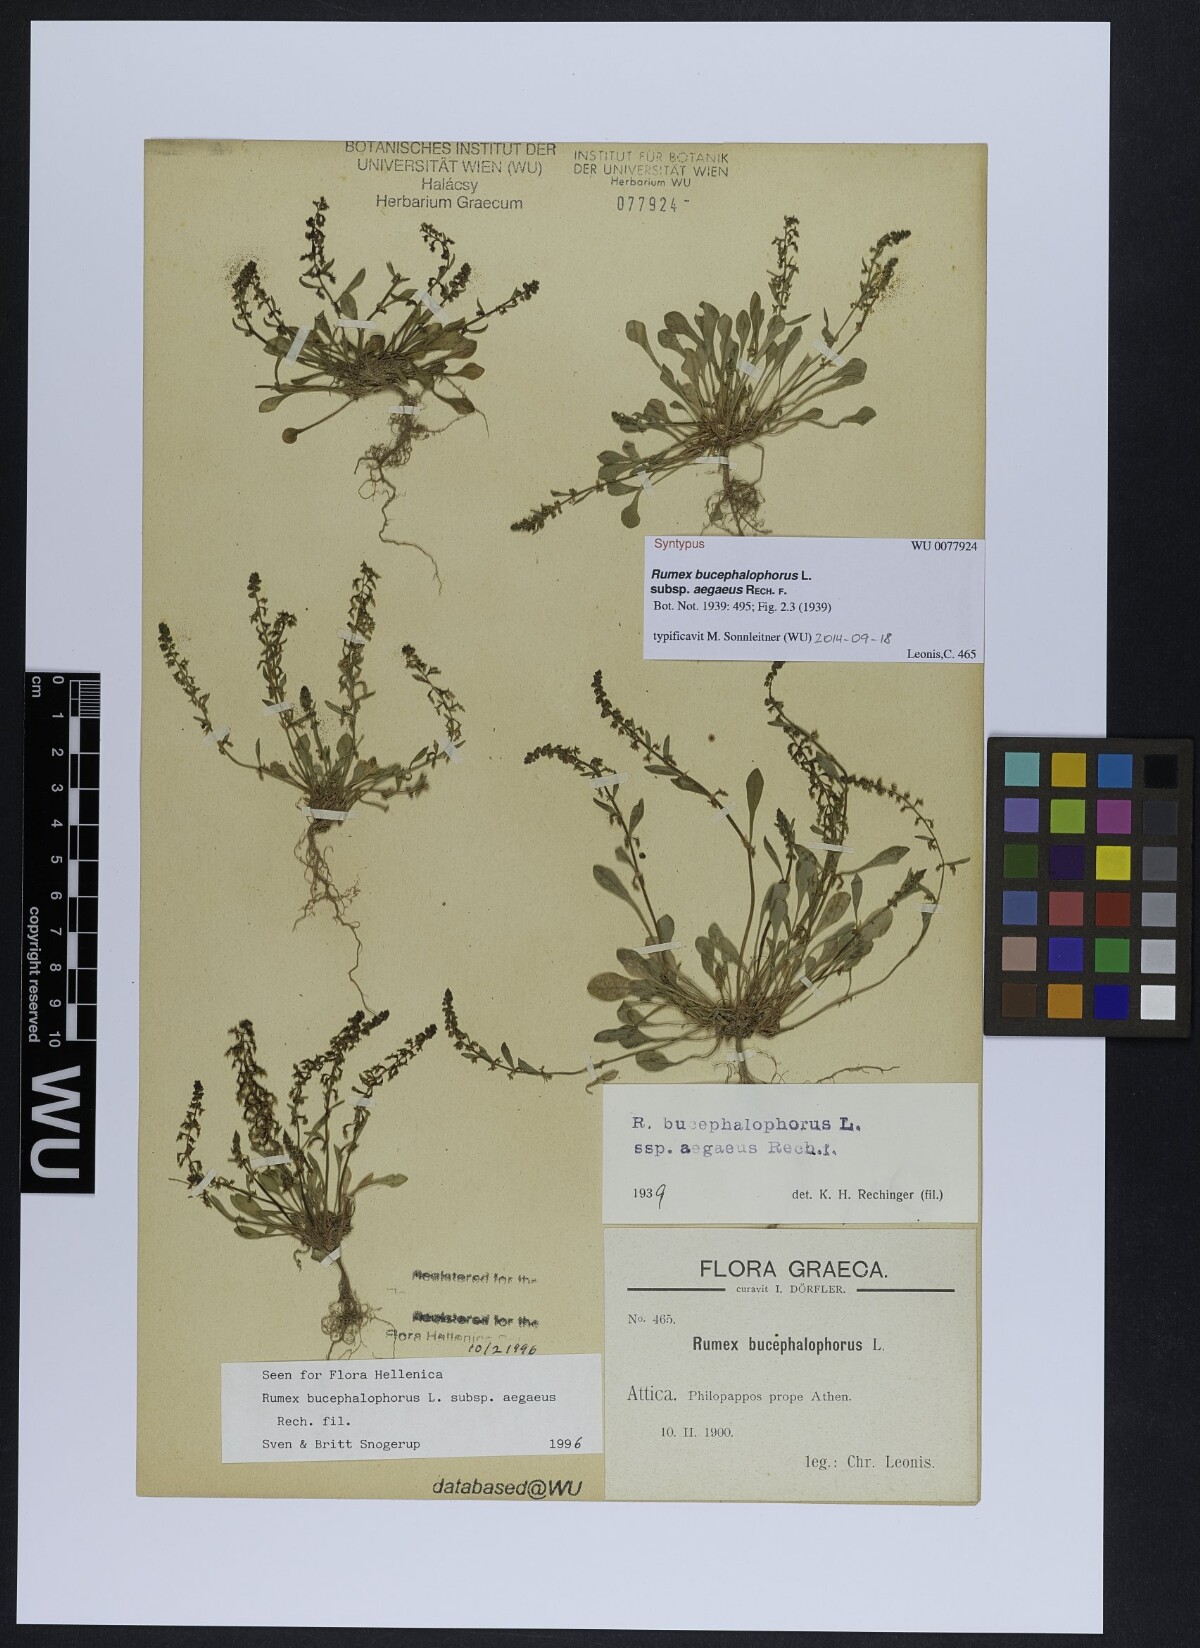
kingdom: Plantae
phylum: Tracheophyta
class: Magnoliopsida
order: Caryophyllales
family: Polygonaceae
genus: Rumex
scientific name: Rumex bucephalophorus
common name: Red dock
